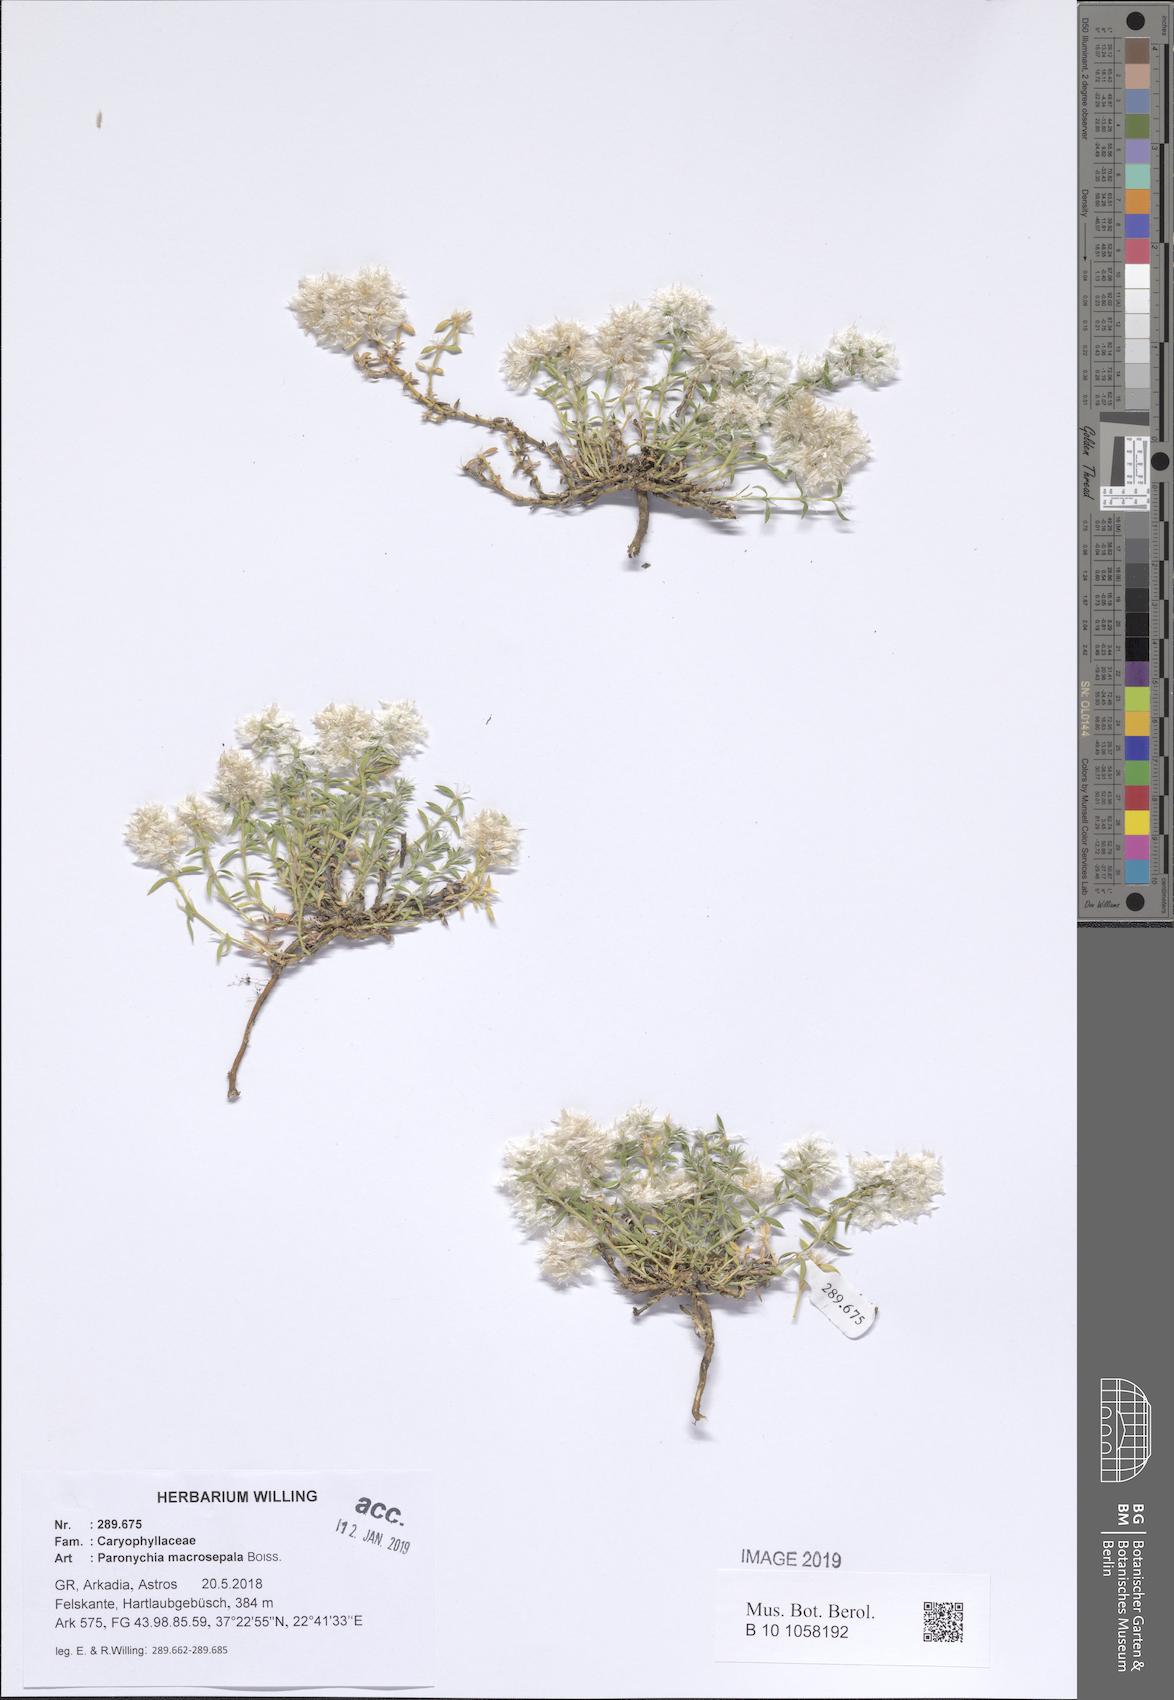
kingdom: Plantae
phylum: Tracheophyta
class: Magnoliopsida
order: Caryophyllales
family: Caryophyllaceae
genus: Paronychia
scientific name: Paronychia macrosepala
